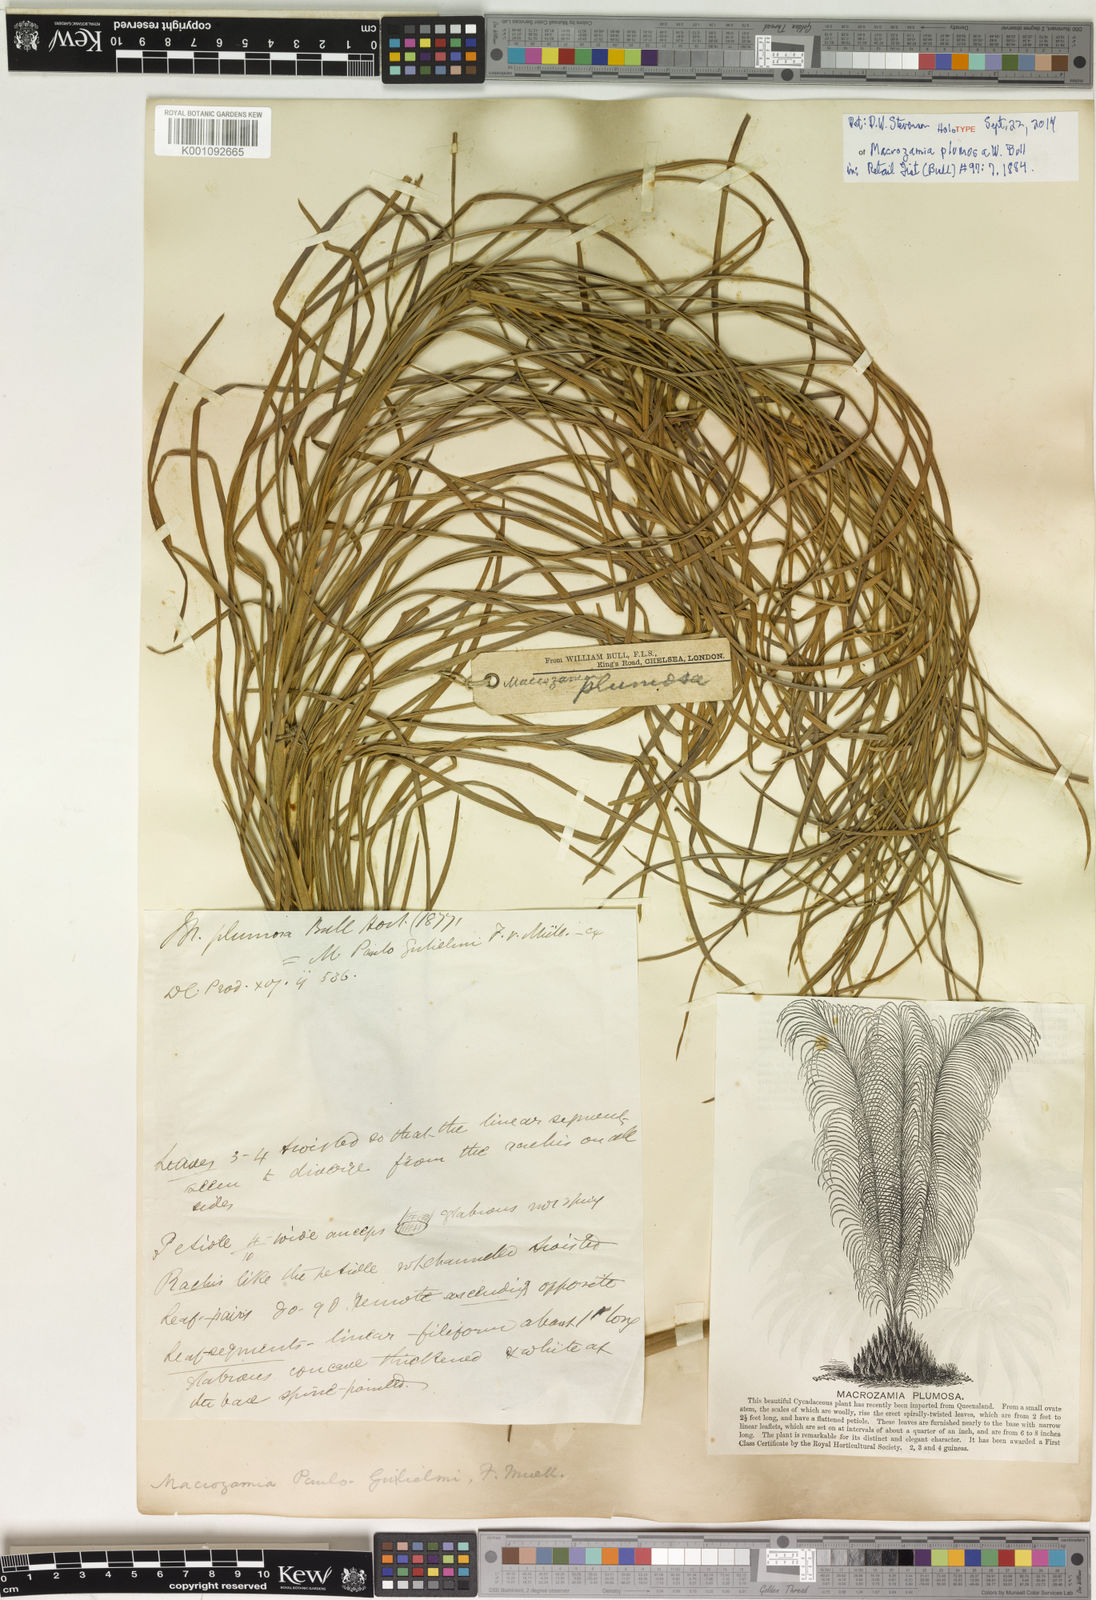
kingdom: Plantae
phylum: Tracheophyta
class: Cycadopsida
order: Cycadales
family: Zamiaceae
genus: Macrozamia
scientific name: Macrozamia miquelii
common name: Wild pineapple
